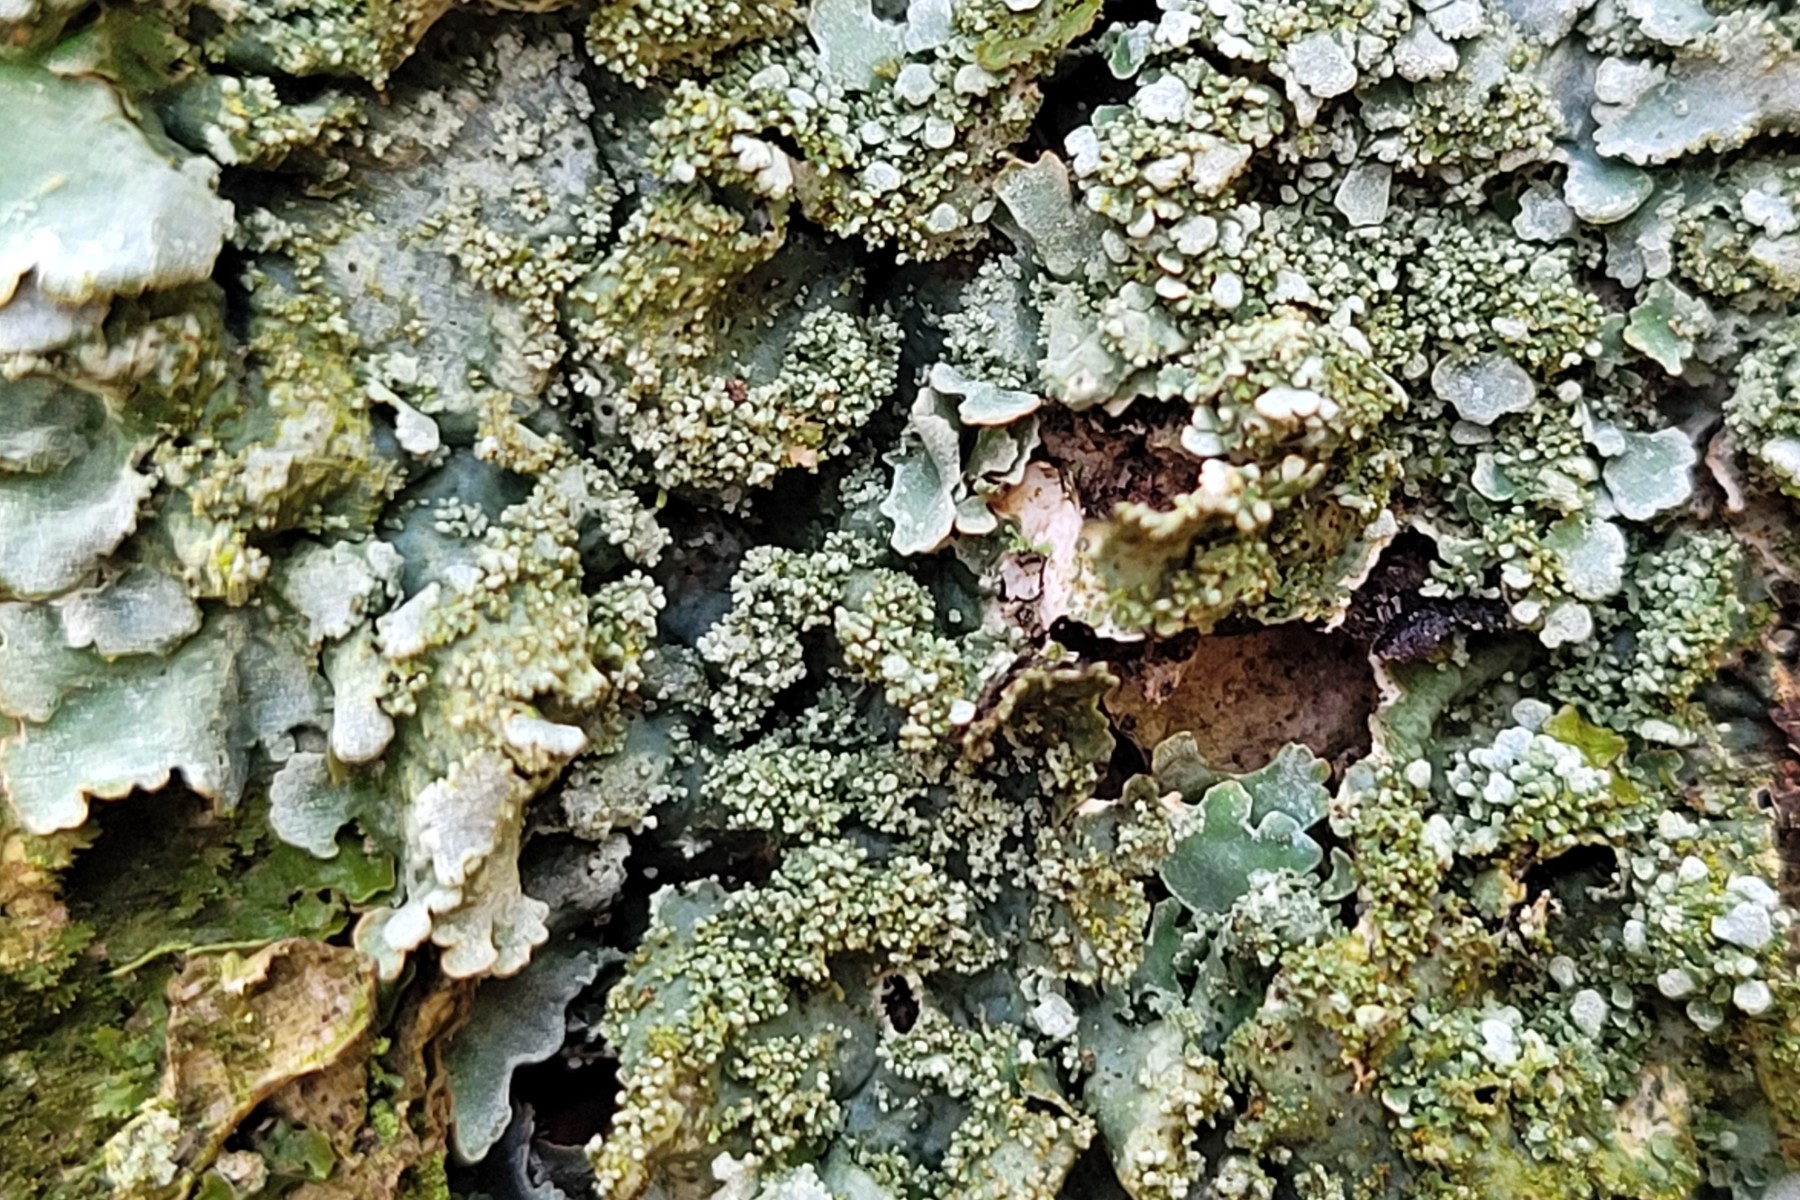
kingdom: Fungi
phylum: Ascomycota
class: Lecanoromycetes
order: Lecanorales
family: Parmeliaceae
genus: Parmelia
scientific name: Parmelia ernstiae
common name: rimstift-skållav
